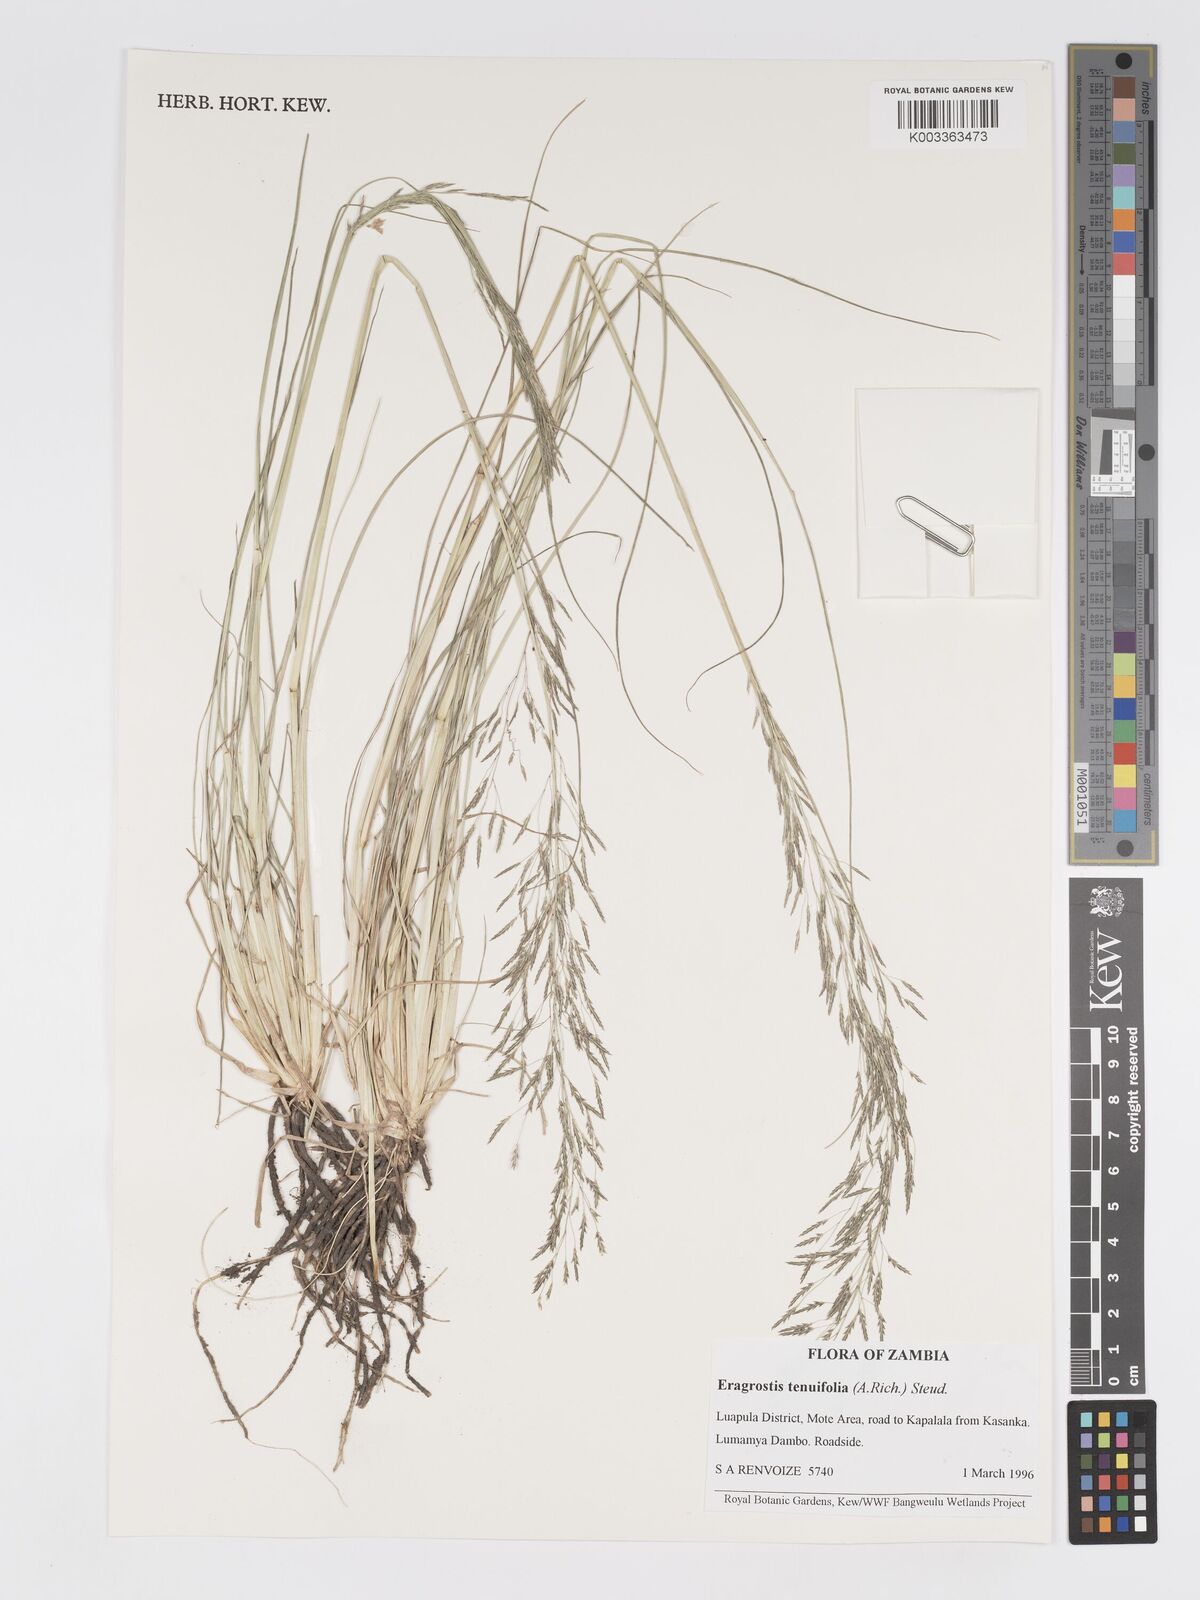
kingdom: Plantae
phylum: Tracheophyta
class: Liliopsida
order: Poales
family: Poaceae
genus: Eragrostis
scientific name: Eragrostis tenuifolia
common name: Elastic grass
